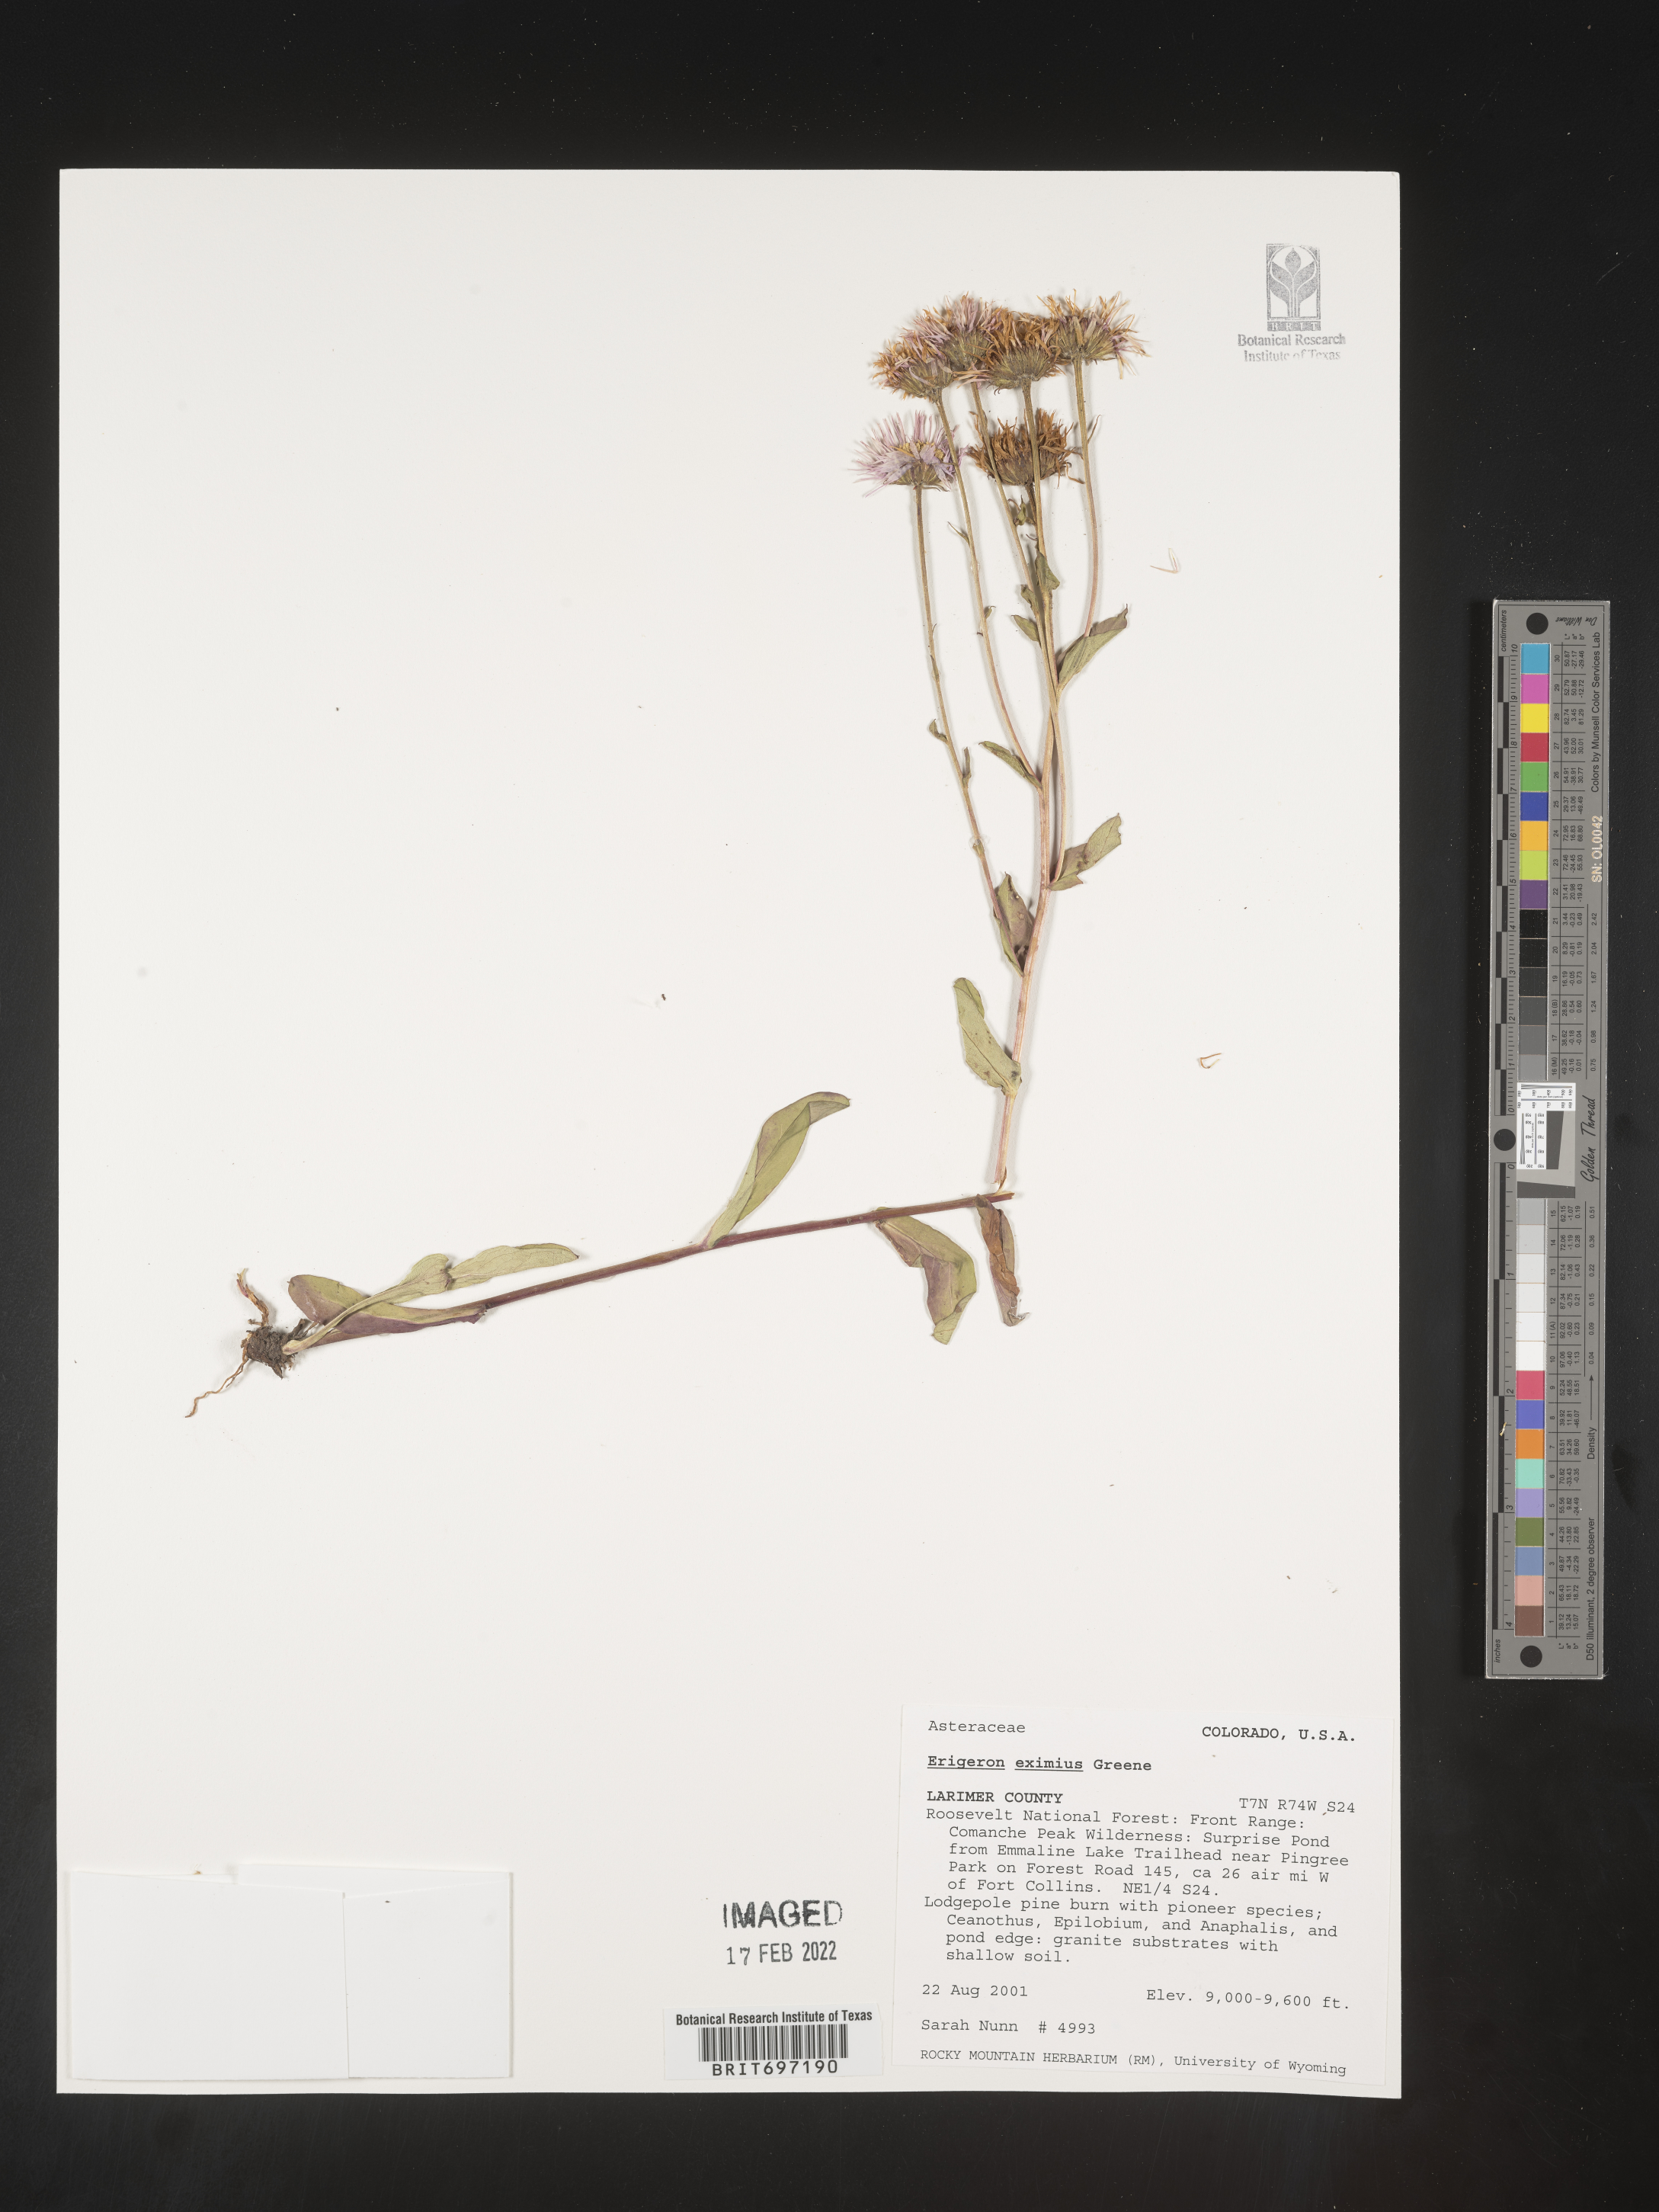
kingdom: Plantae
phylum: Tracheophyta
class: Magnoliopsida
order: Asterales
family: Asteraceae
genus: Erigeron
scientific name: Erigeron eximius
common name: Spruce-fir fleabane
